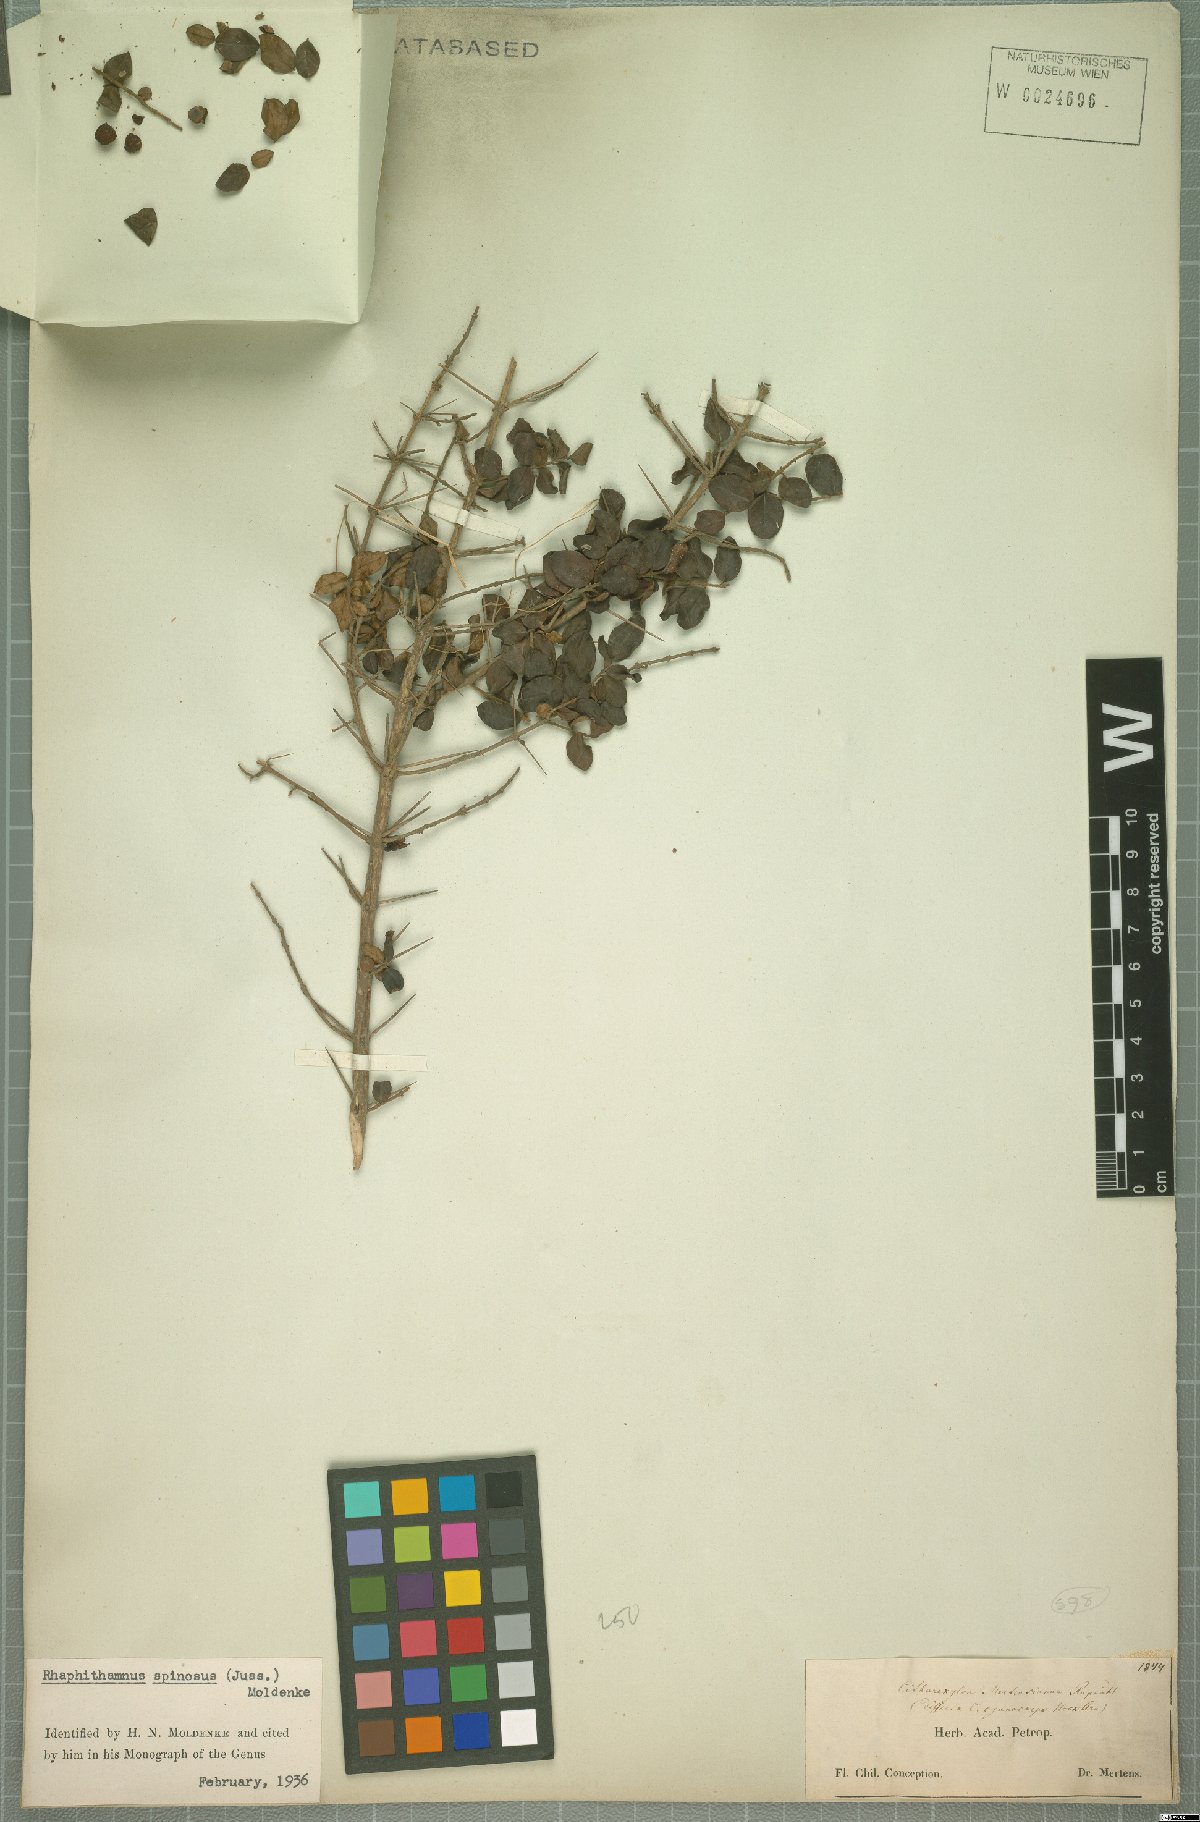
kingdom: Plantae
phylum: Tracheophyta
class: Magnoliopsida
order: Lamiales
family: Verbenaceae
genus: Rhaphithamnus
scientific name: Rhaphithamnus spinosus
